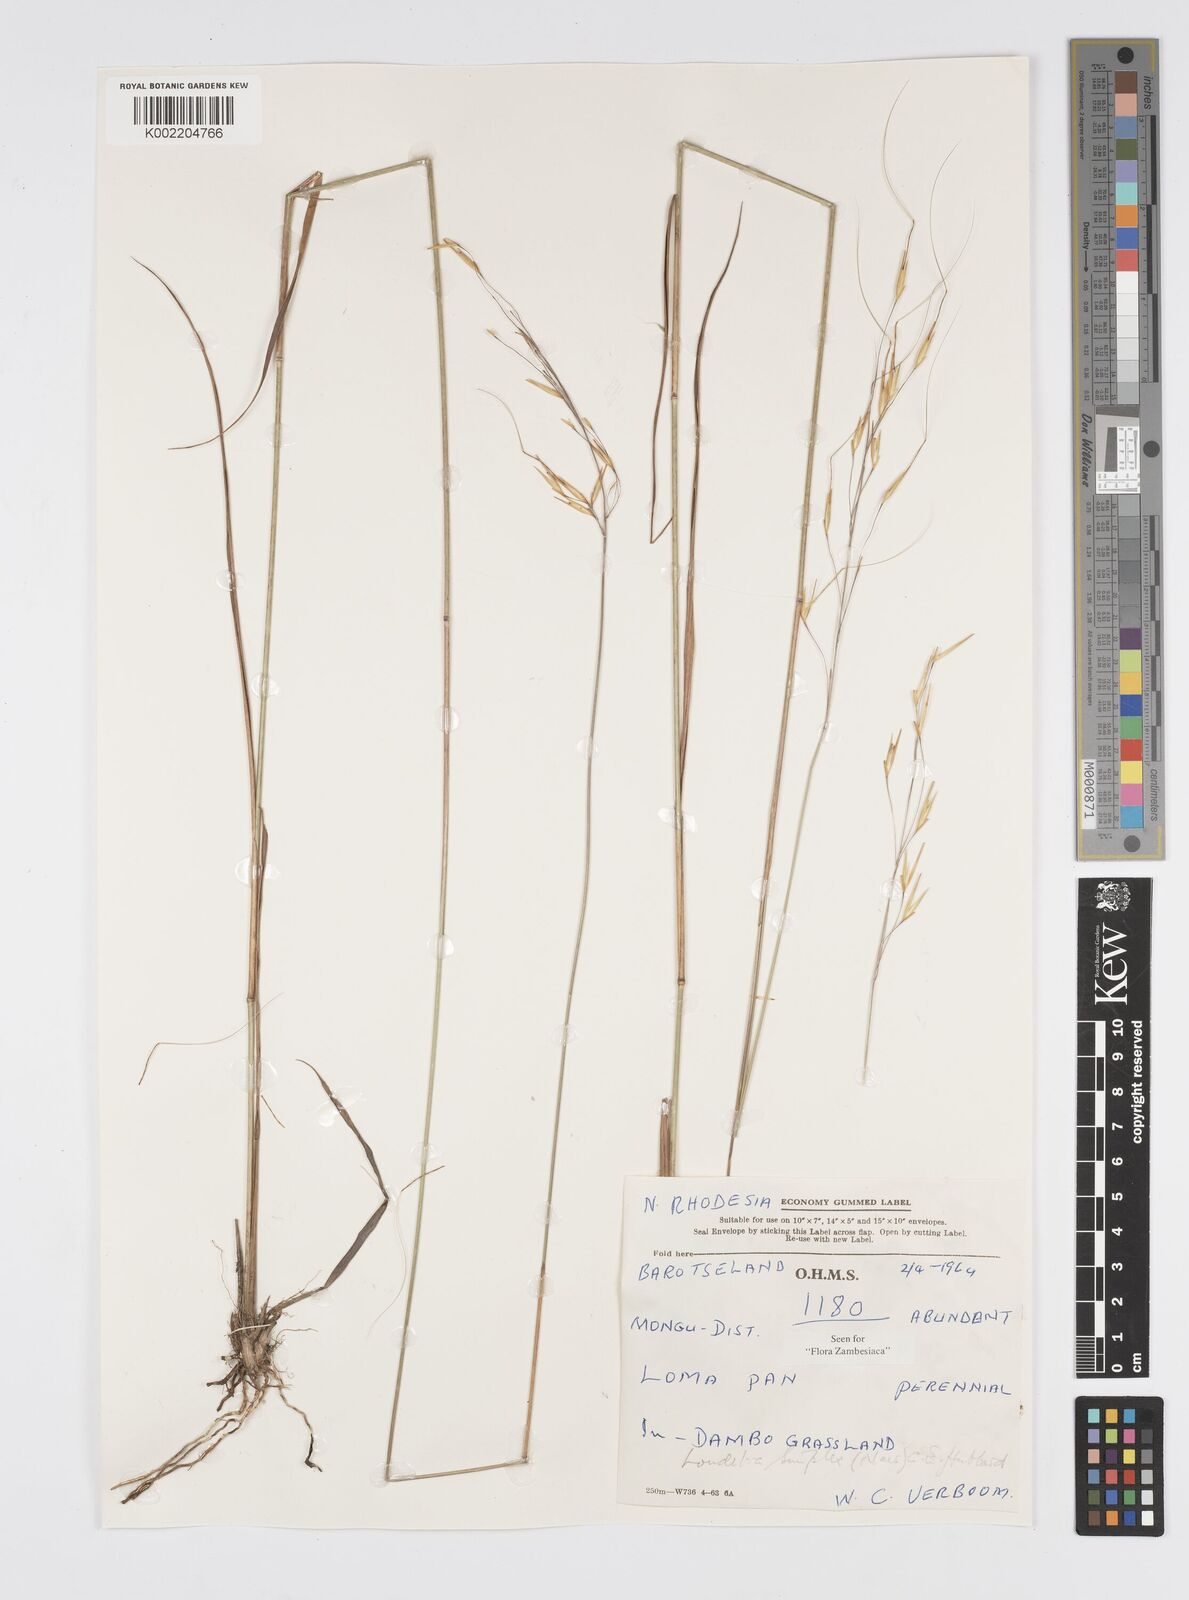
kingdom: Plantae
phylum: Tracheophyta
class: Liliopsida
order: Poales
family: Poaceae
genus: Loudetia
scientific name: Loudetia simplex
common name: Common russet grass
